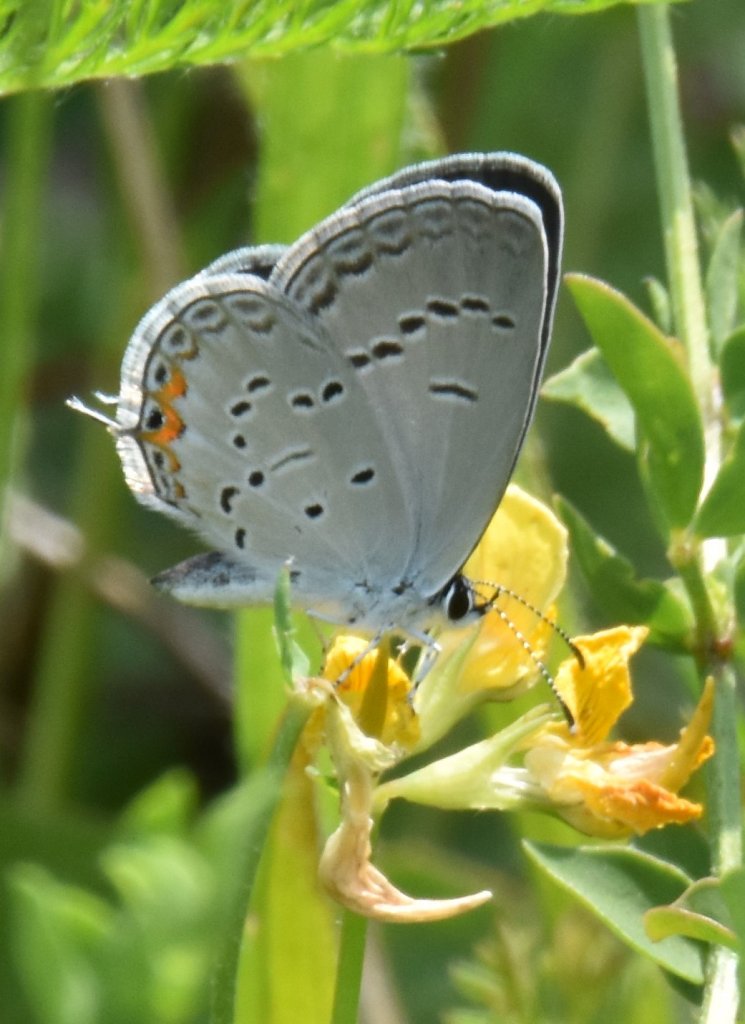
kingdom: Animalia
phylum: Arthropoda
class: Insecta
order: Lepidoptera
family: Lycaenidae
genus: Elkalyce
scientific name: Elkalyce comyntas
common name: Eastern Tailed-Blue
